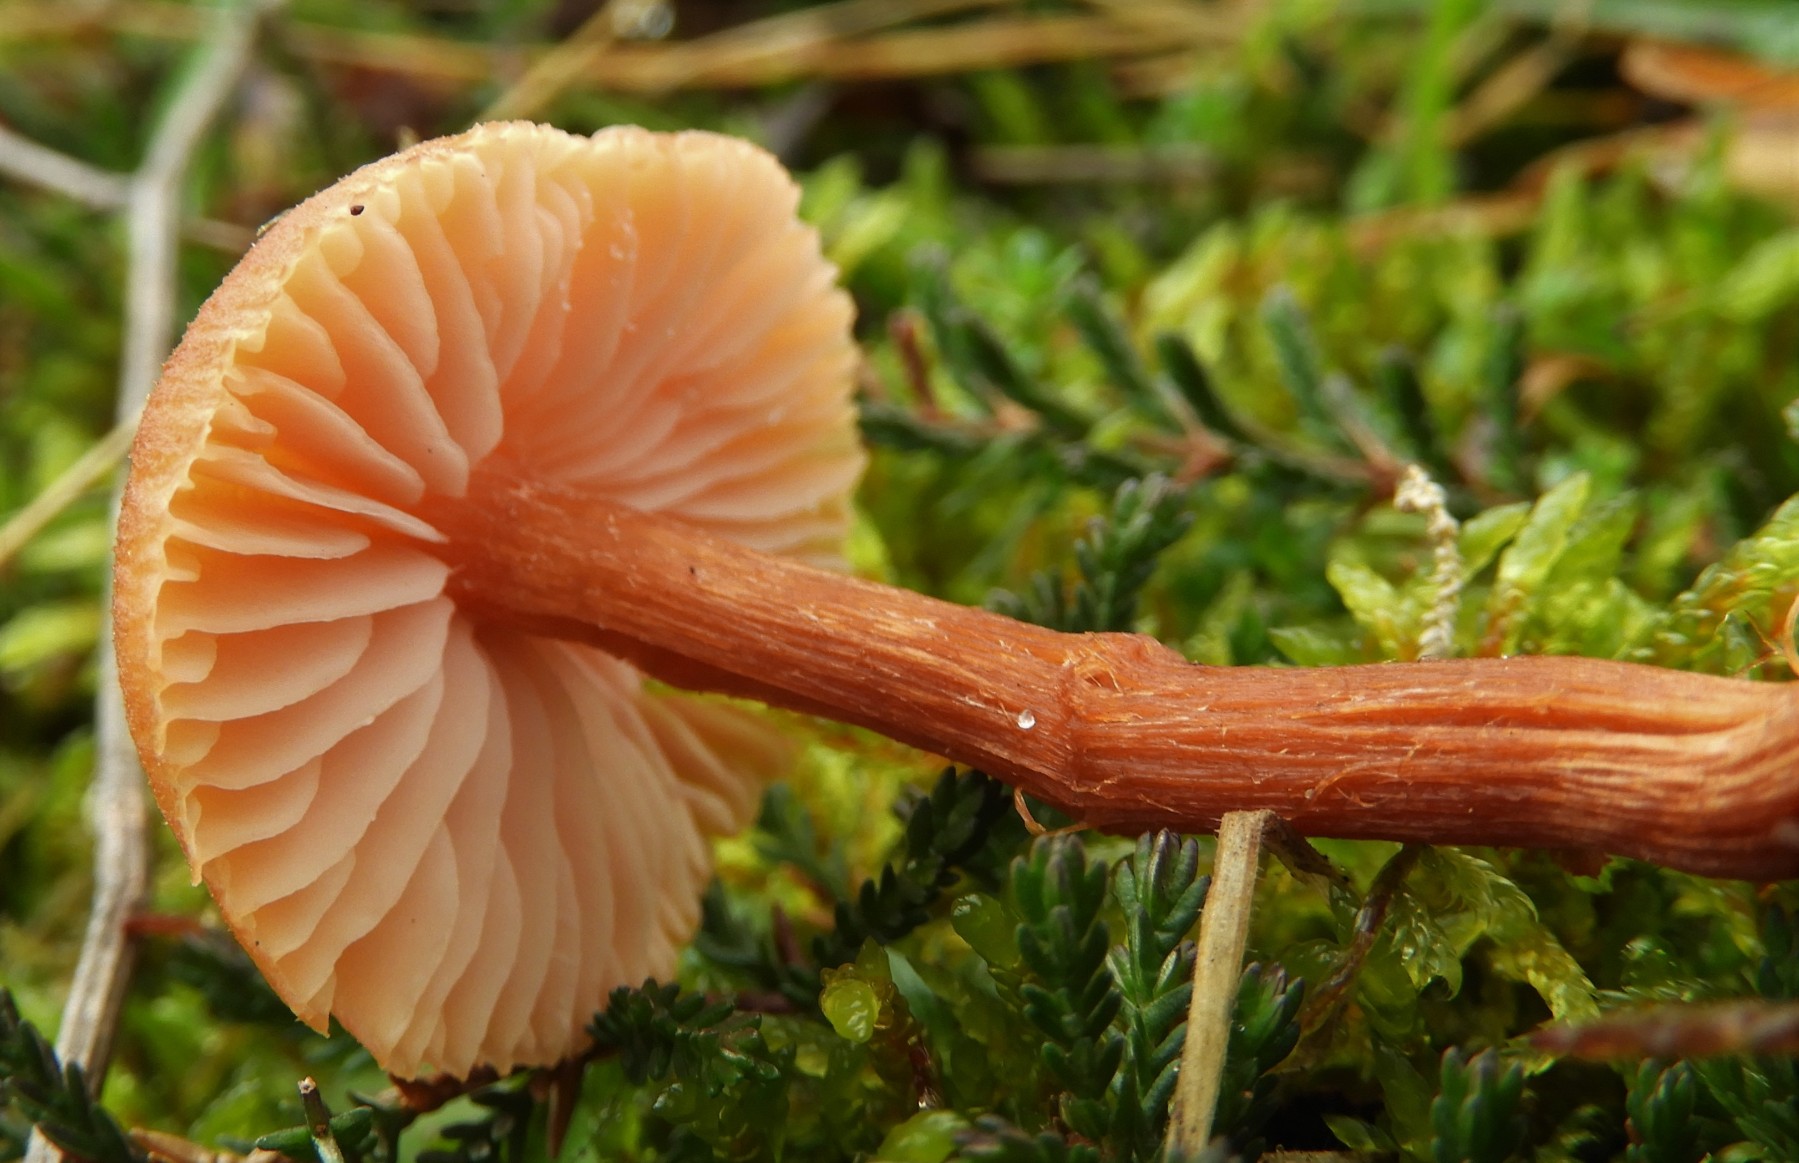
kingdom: Fungi
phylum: Basidiomycota
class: Agaricomycetes
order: Agaricales
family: Hydnangiaceae
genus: Laccaria
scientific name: Laccaria proxima
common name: stor ametysthat
